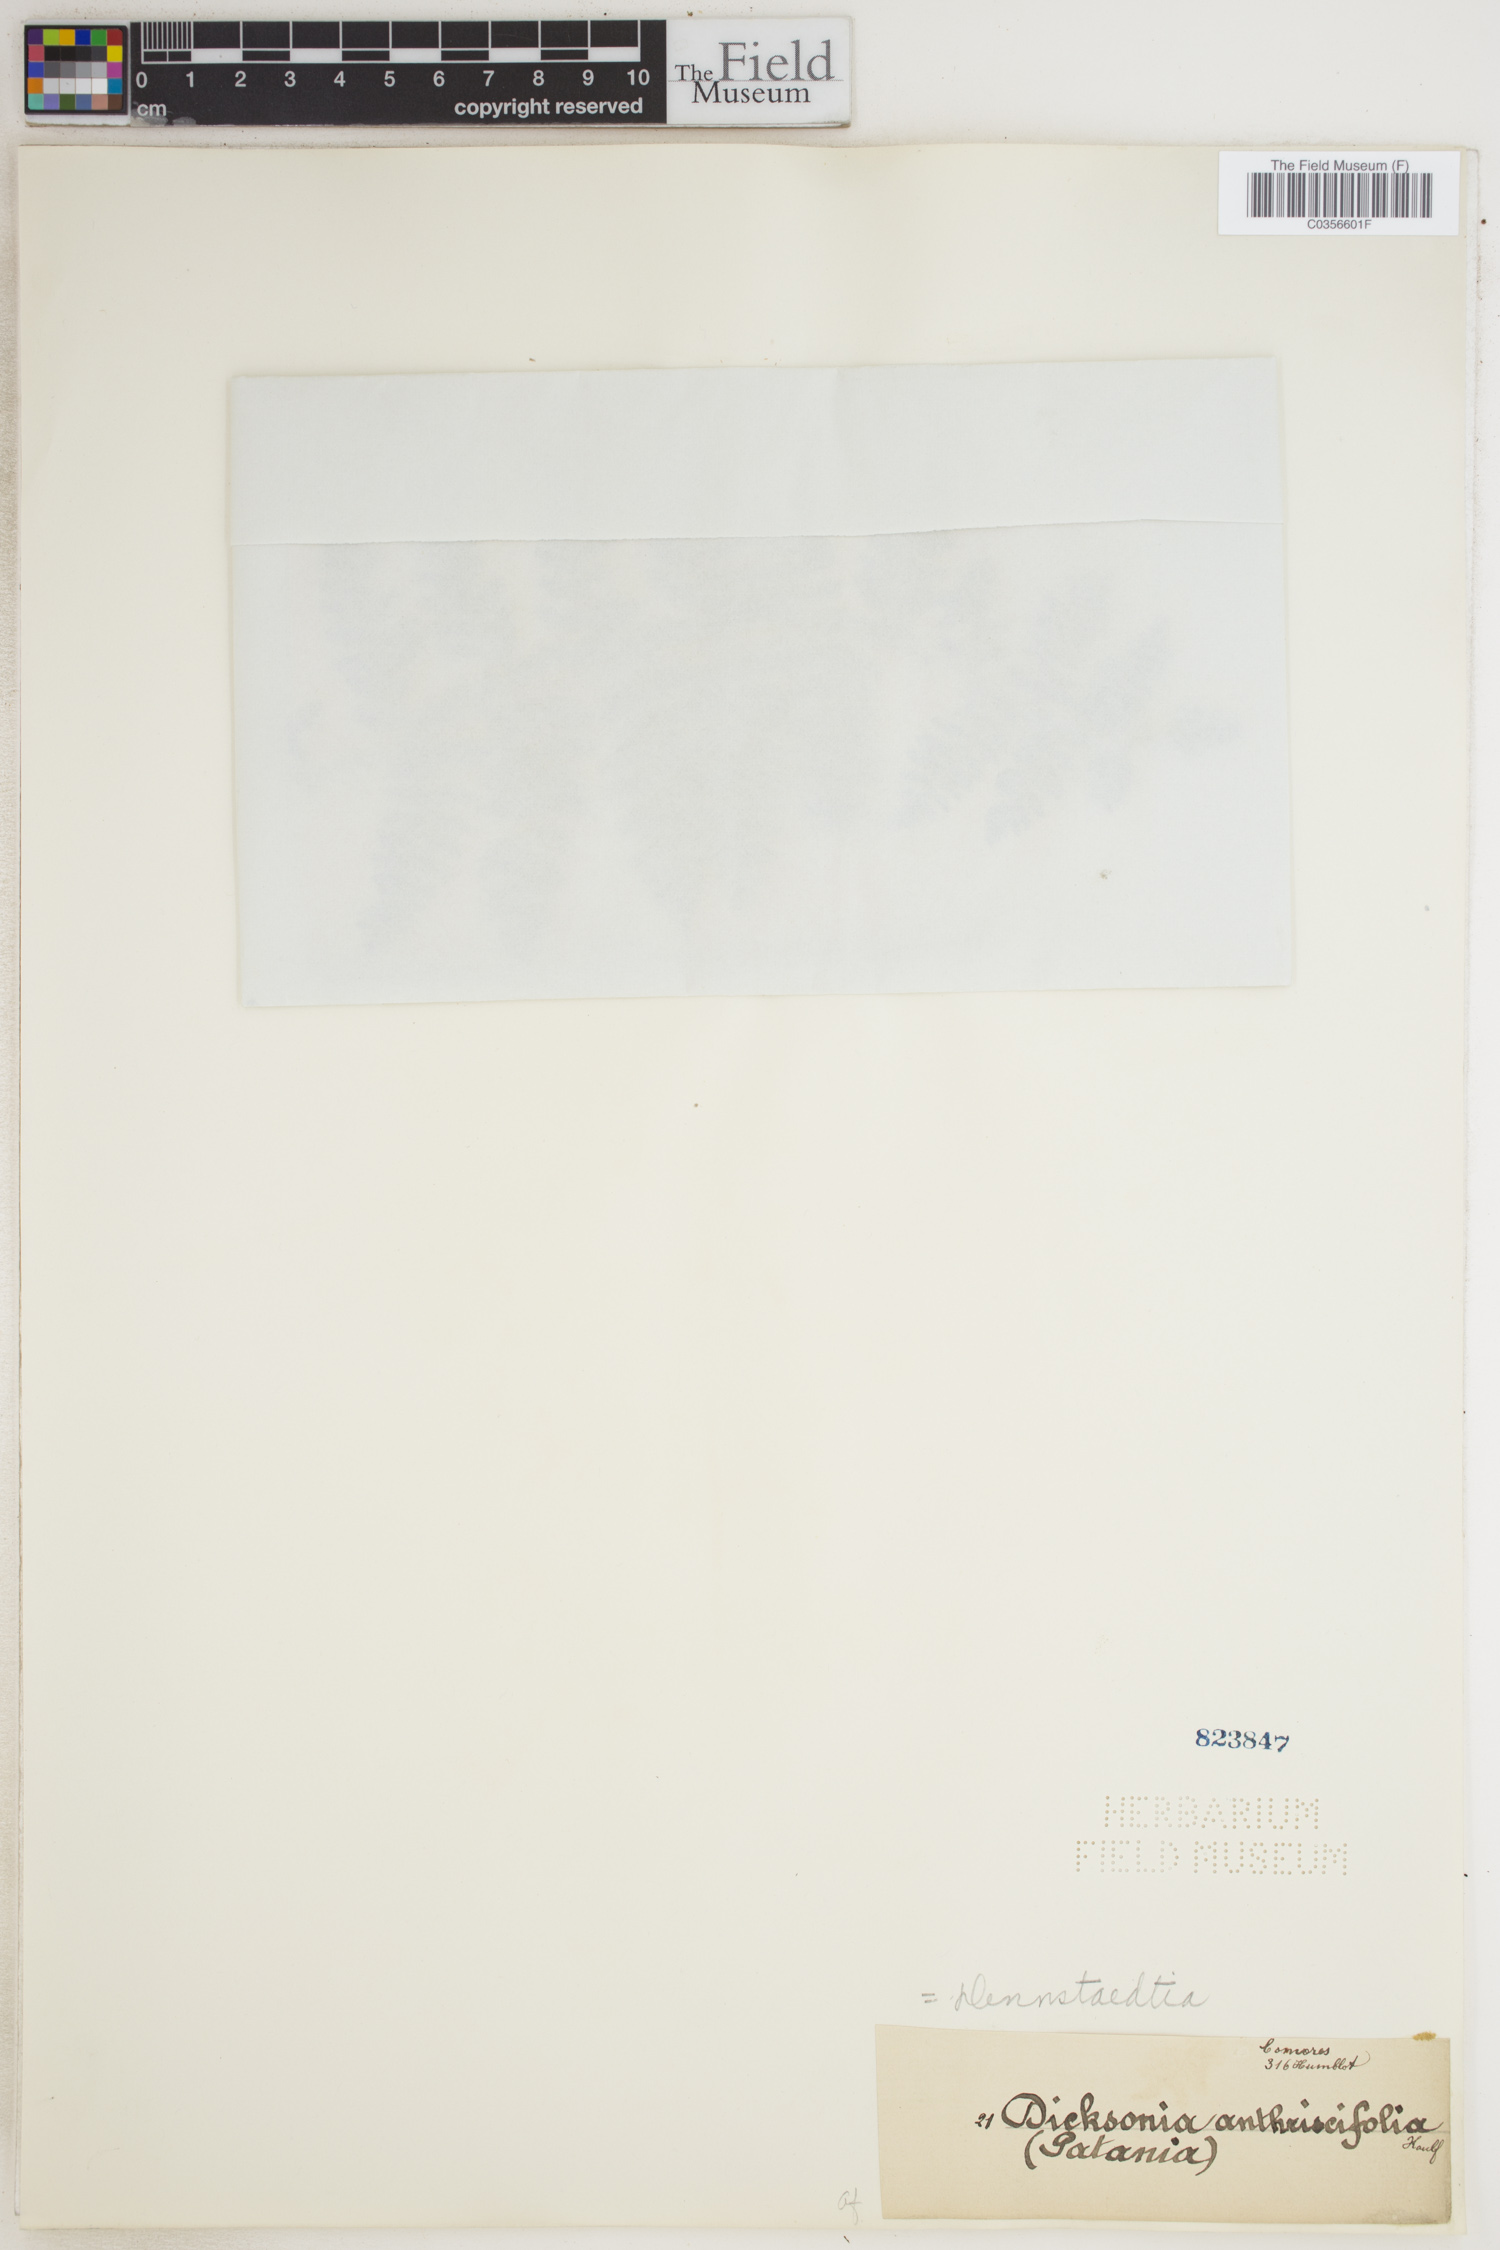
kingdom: Plantae
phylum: Tracheophyta
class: Polypodiopsida
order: Polypodiales
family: Dennstaedtiaceae
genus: Dennstaedtia
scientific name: Dennstaedtia anthriscifolia
